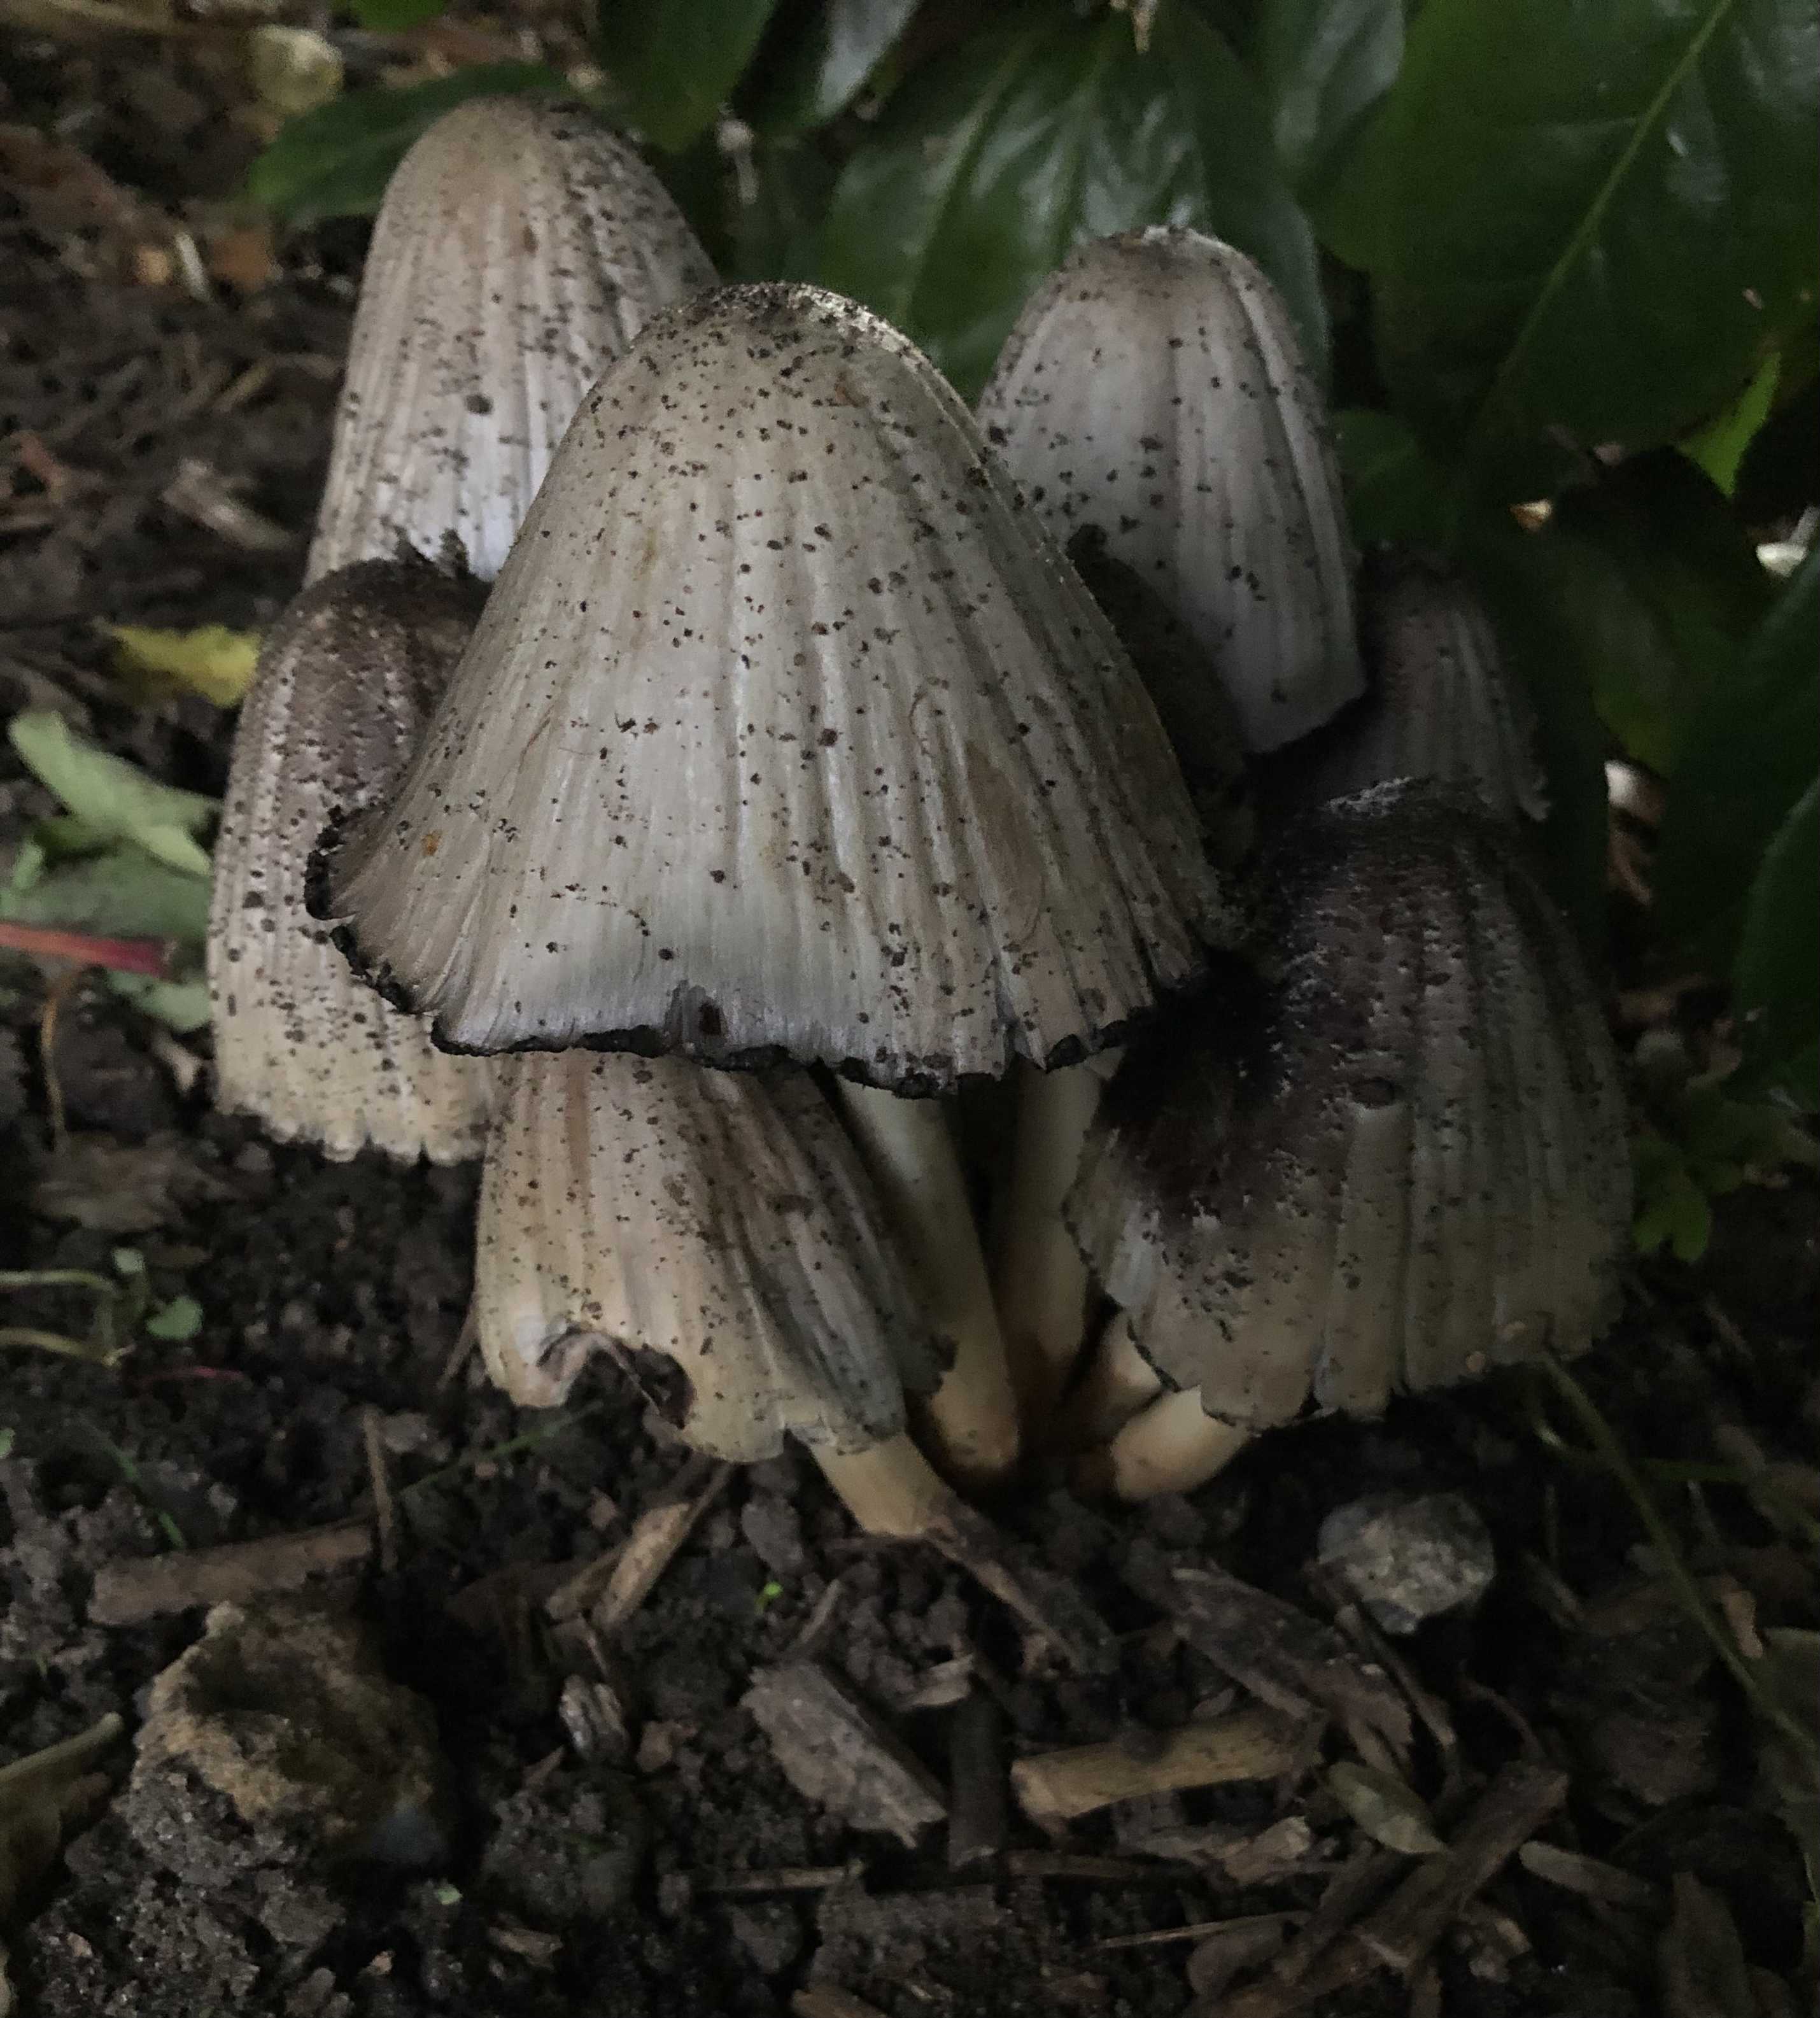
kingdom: Fungi
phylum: Basidiomycota
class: Agaricomycetes
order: Agaricales
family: Psathyrellaceae
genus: Coprinopsis
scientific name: Coprinopsis atramentaria
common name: almindelig blækhat
